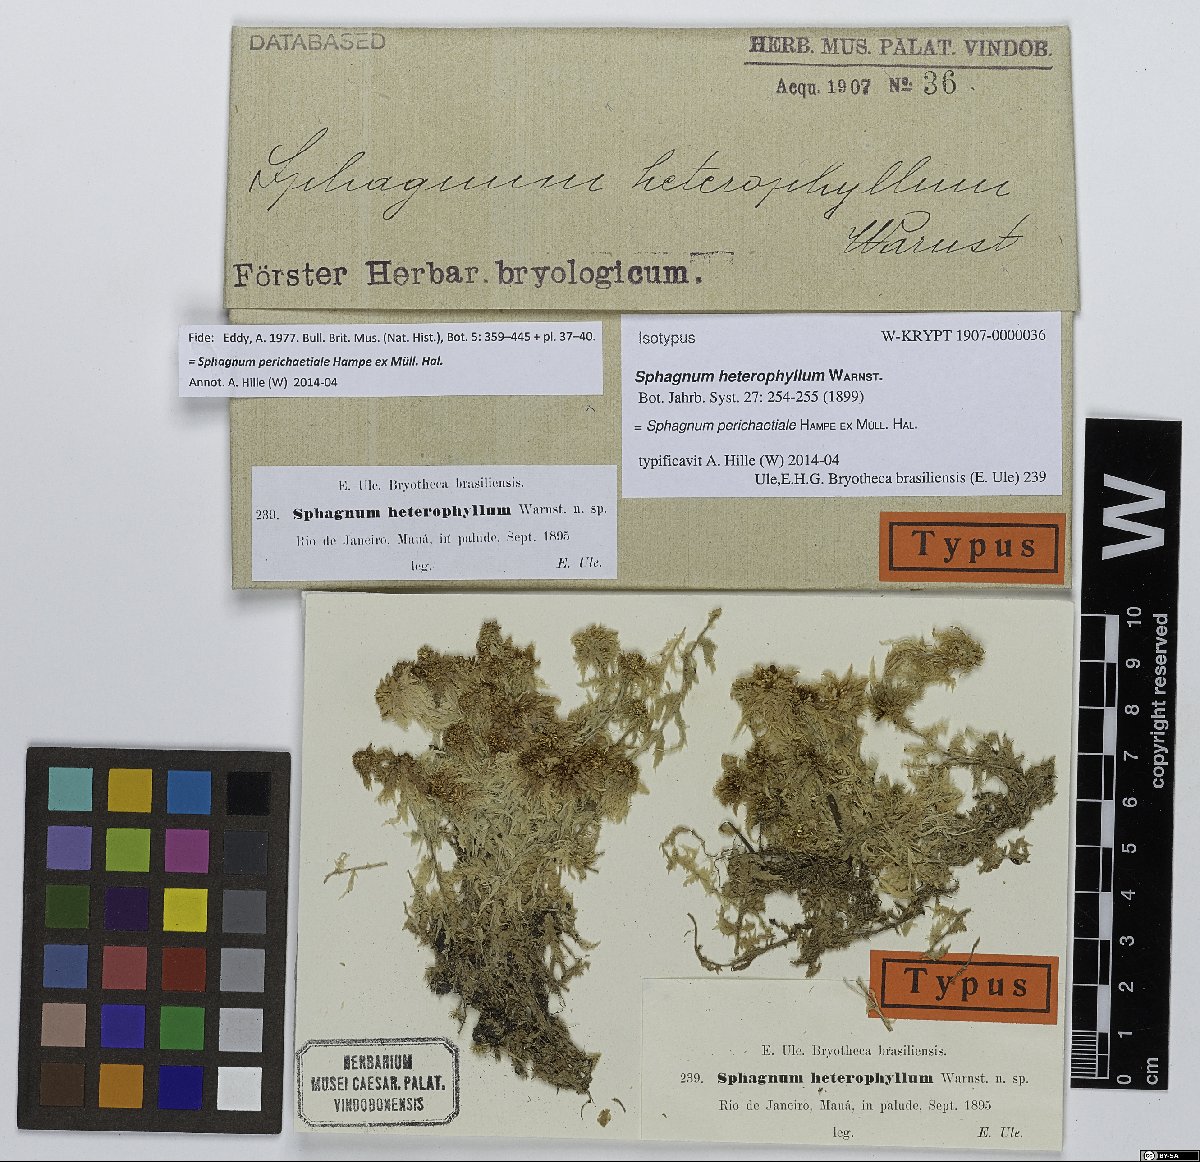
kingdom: Plantae
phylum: Bryophyta
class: Sphagnopsida
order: Sphagnales
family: Sphagnaceae
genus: Sphagnum
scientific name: Sphagnum perichaetiale
